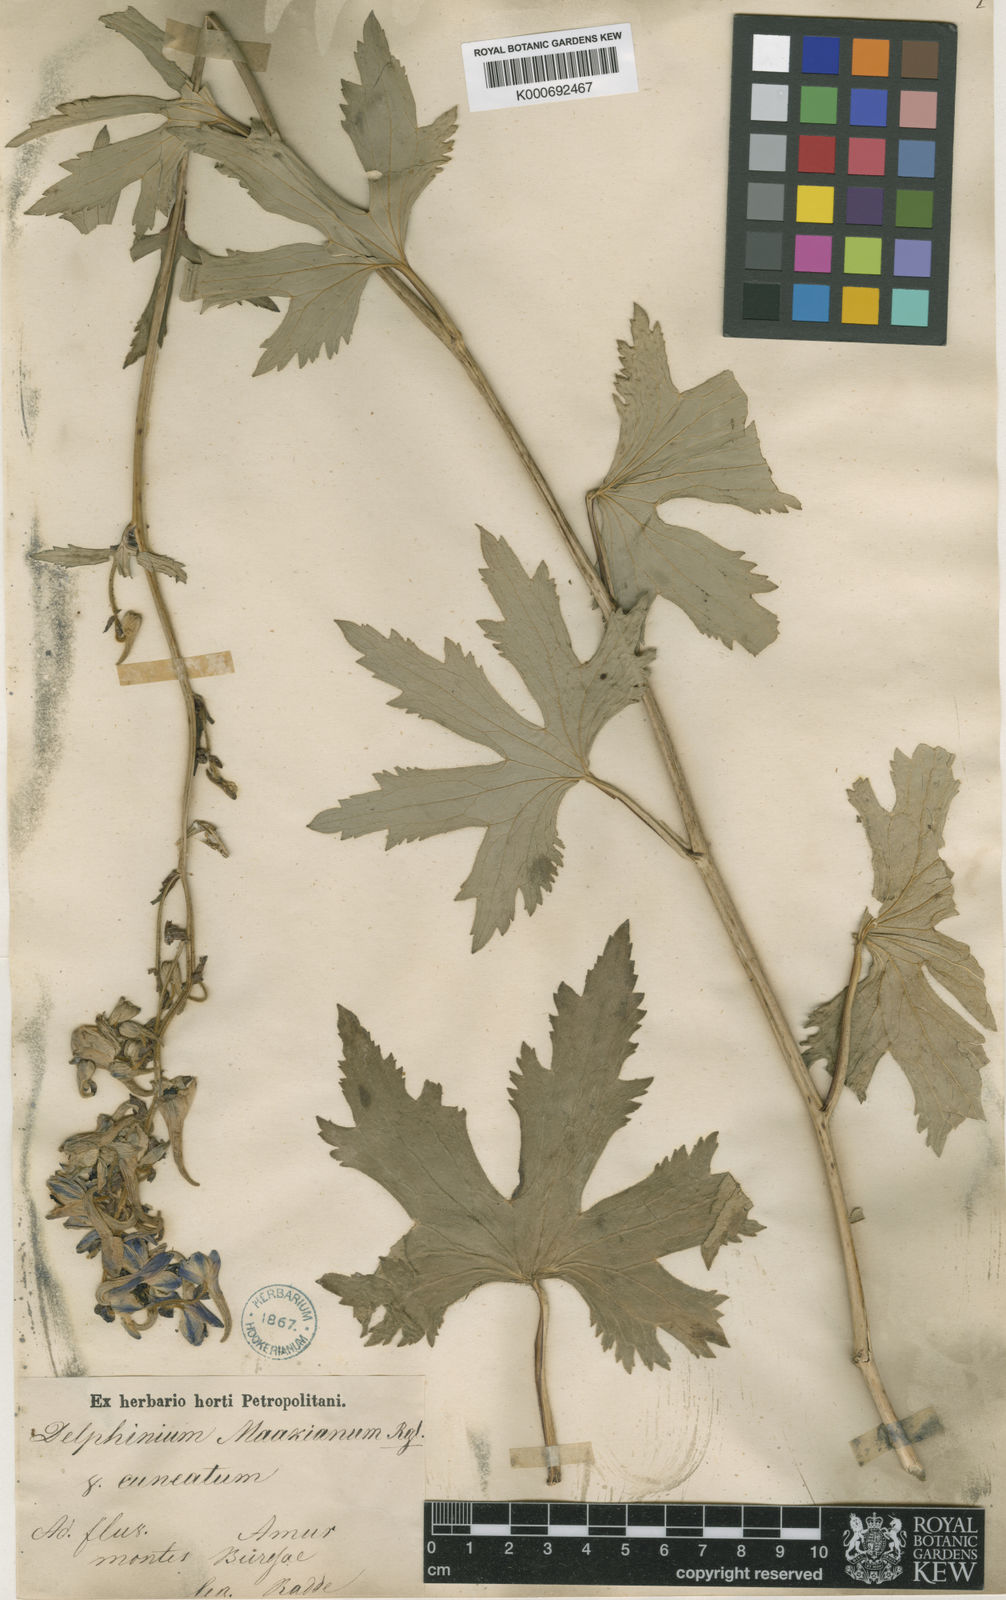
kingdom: Plantae
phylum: Tracheophyta
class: Magnoliopsida
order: Ranunculales
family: Ranunculaceae
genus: Delphinium
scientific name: Delphinium maackianum
